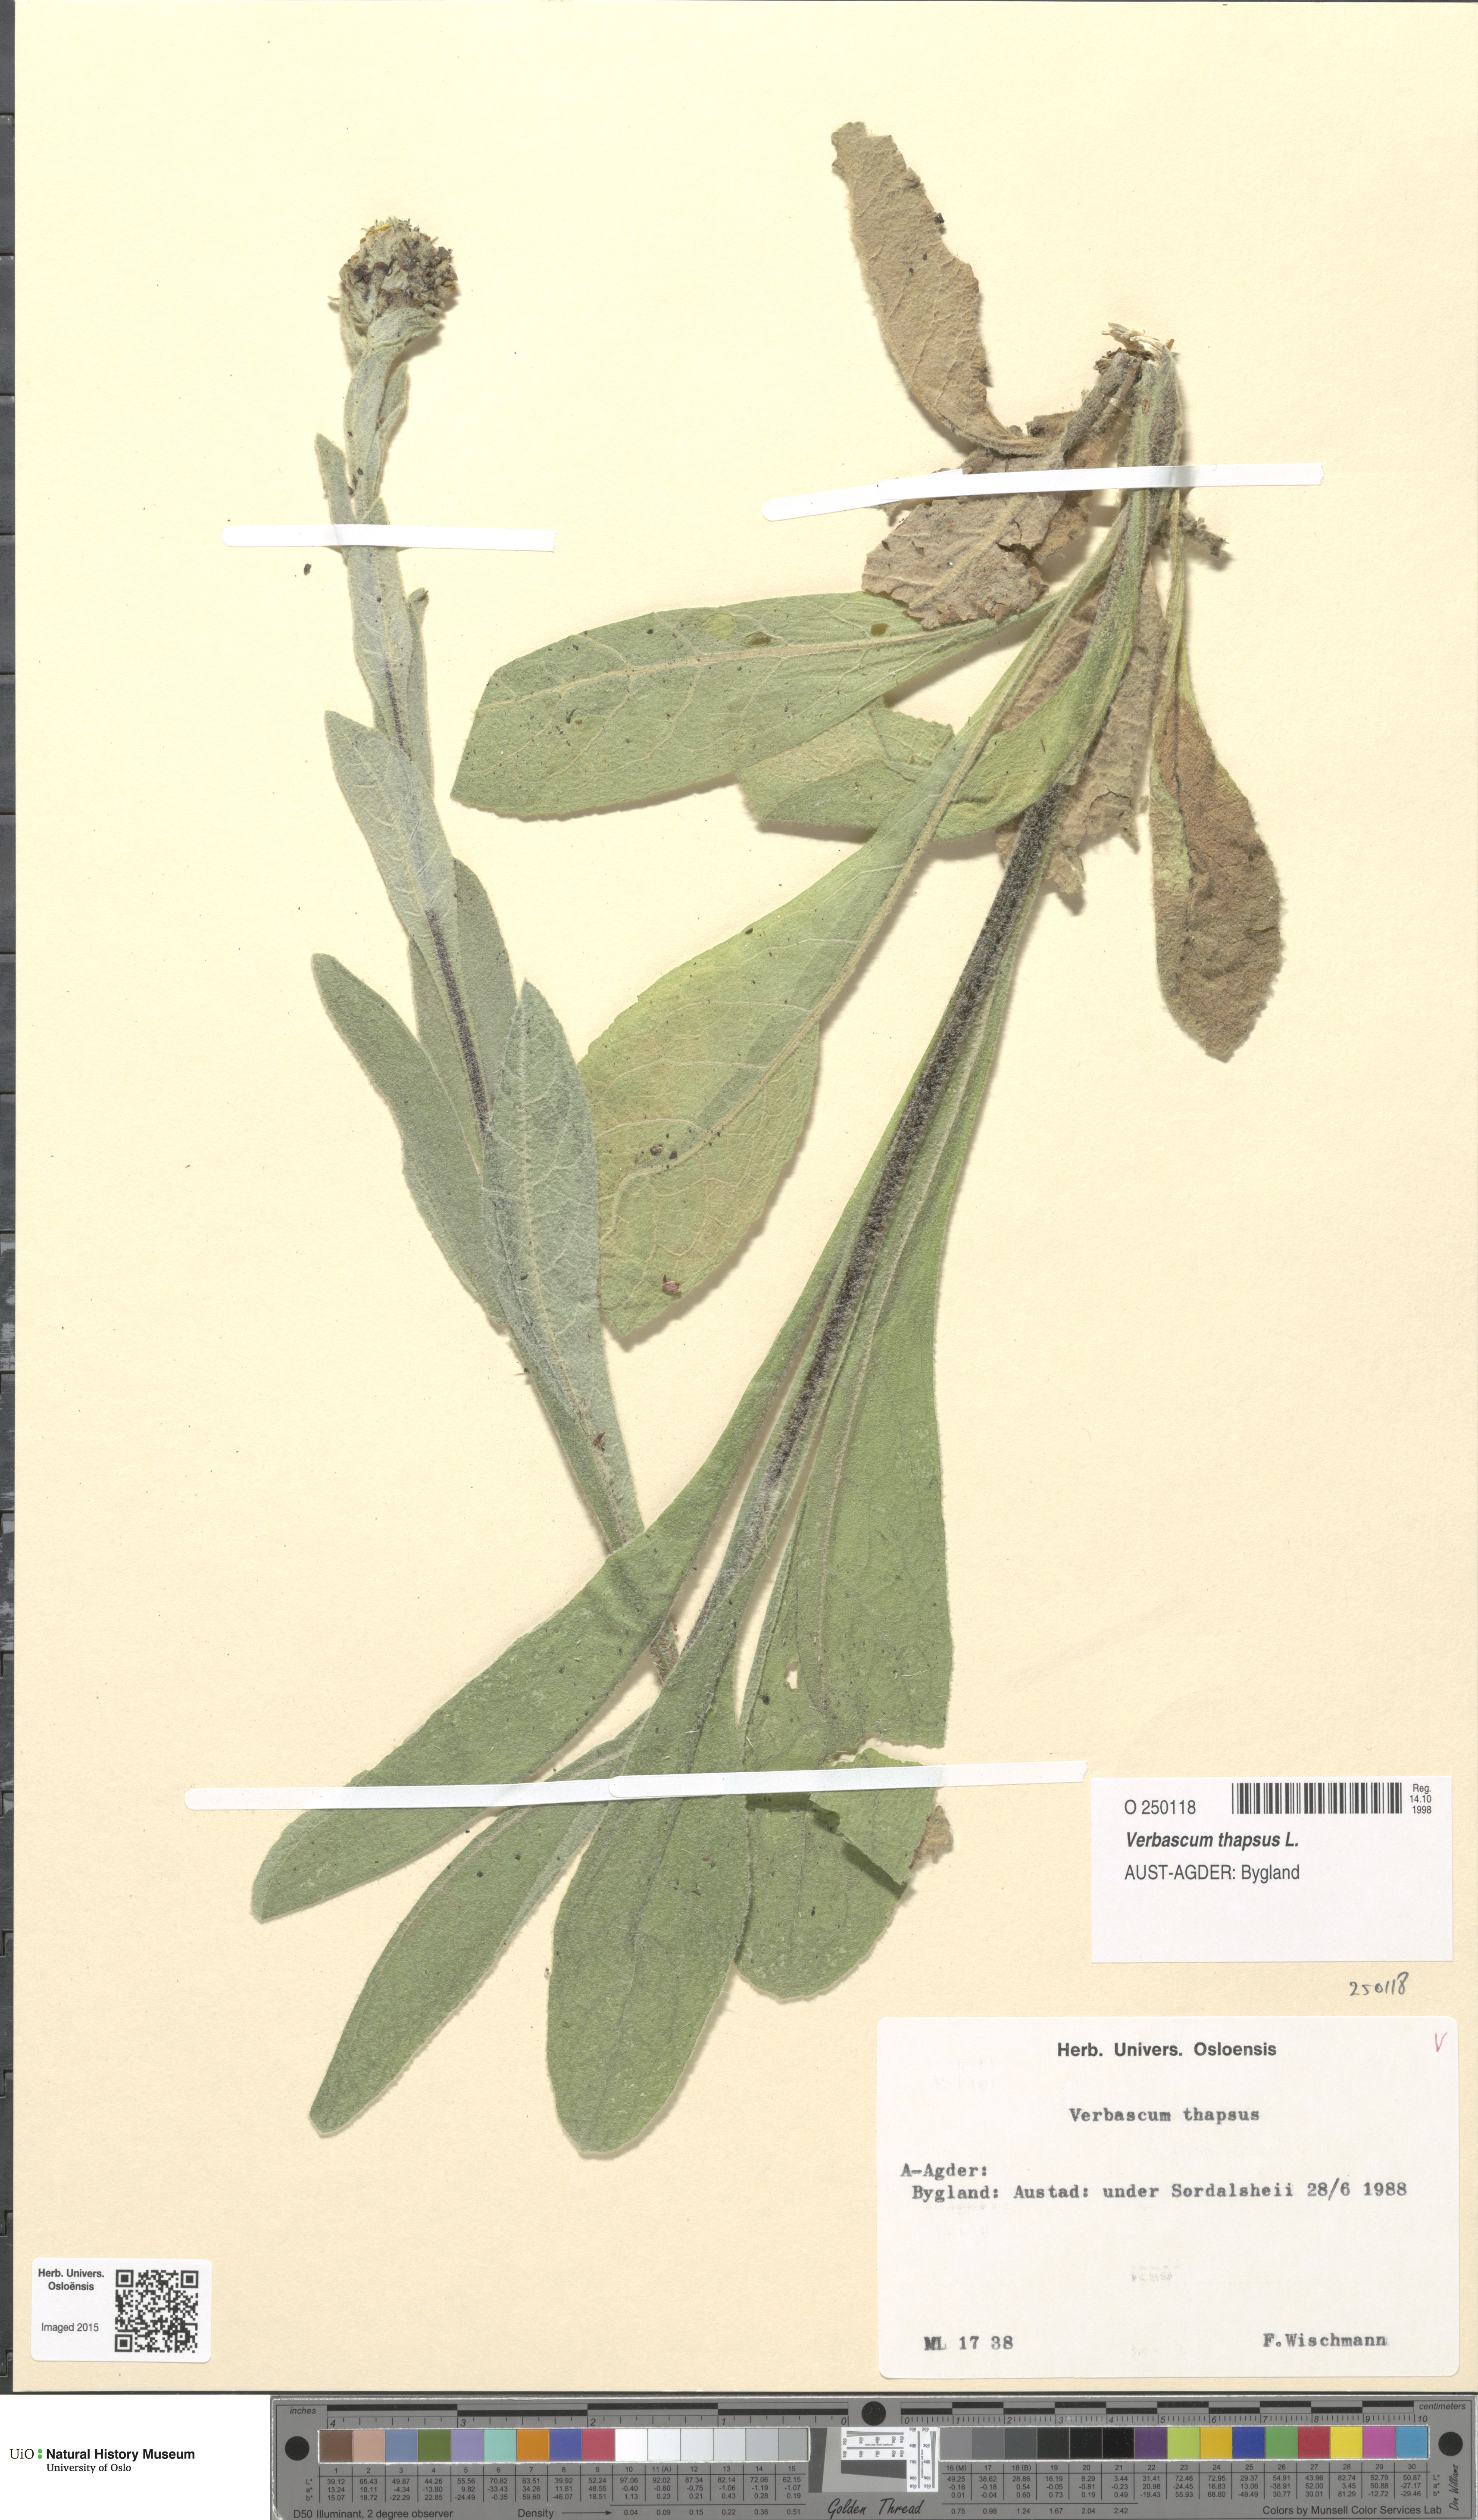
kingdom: Plantae
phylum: Tracheophyta
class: Magnoliopsida
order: Lamiales
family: Scrophulariaceae
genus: Verbascum
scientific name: Verbascum thapsus
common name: Common mullein
